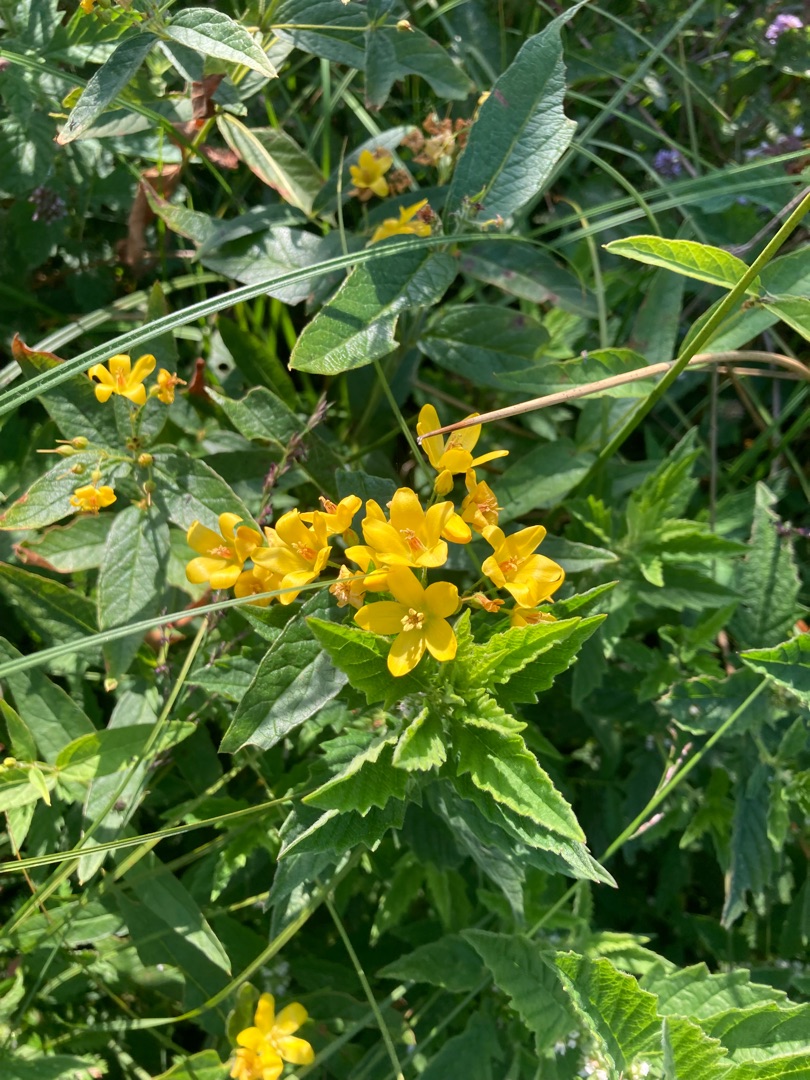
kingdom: Plantae
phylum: Tracheophyta
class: Magnoliopsida
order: Ericales
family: Primulaceae
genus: Lysimachia
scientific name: Lysimachia vulgaris
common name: Almindelig fredløs
